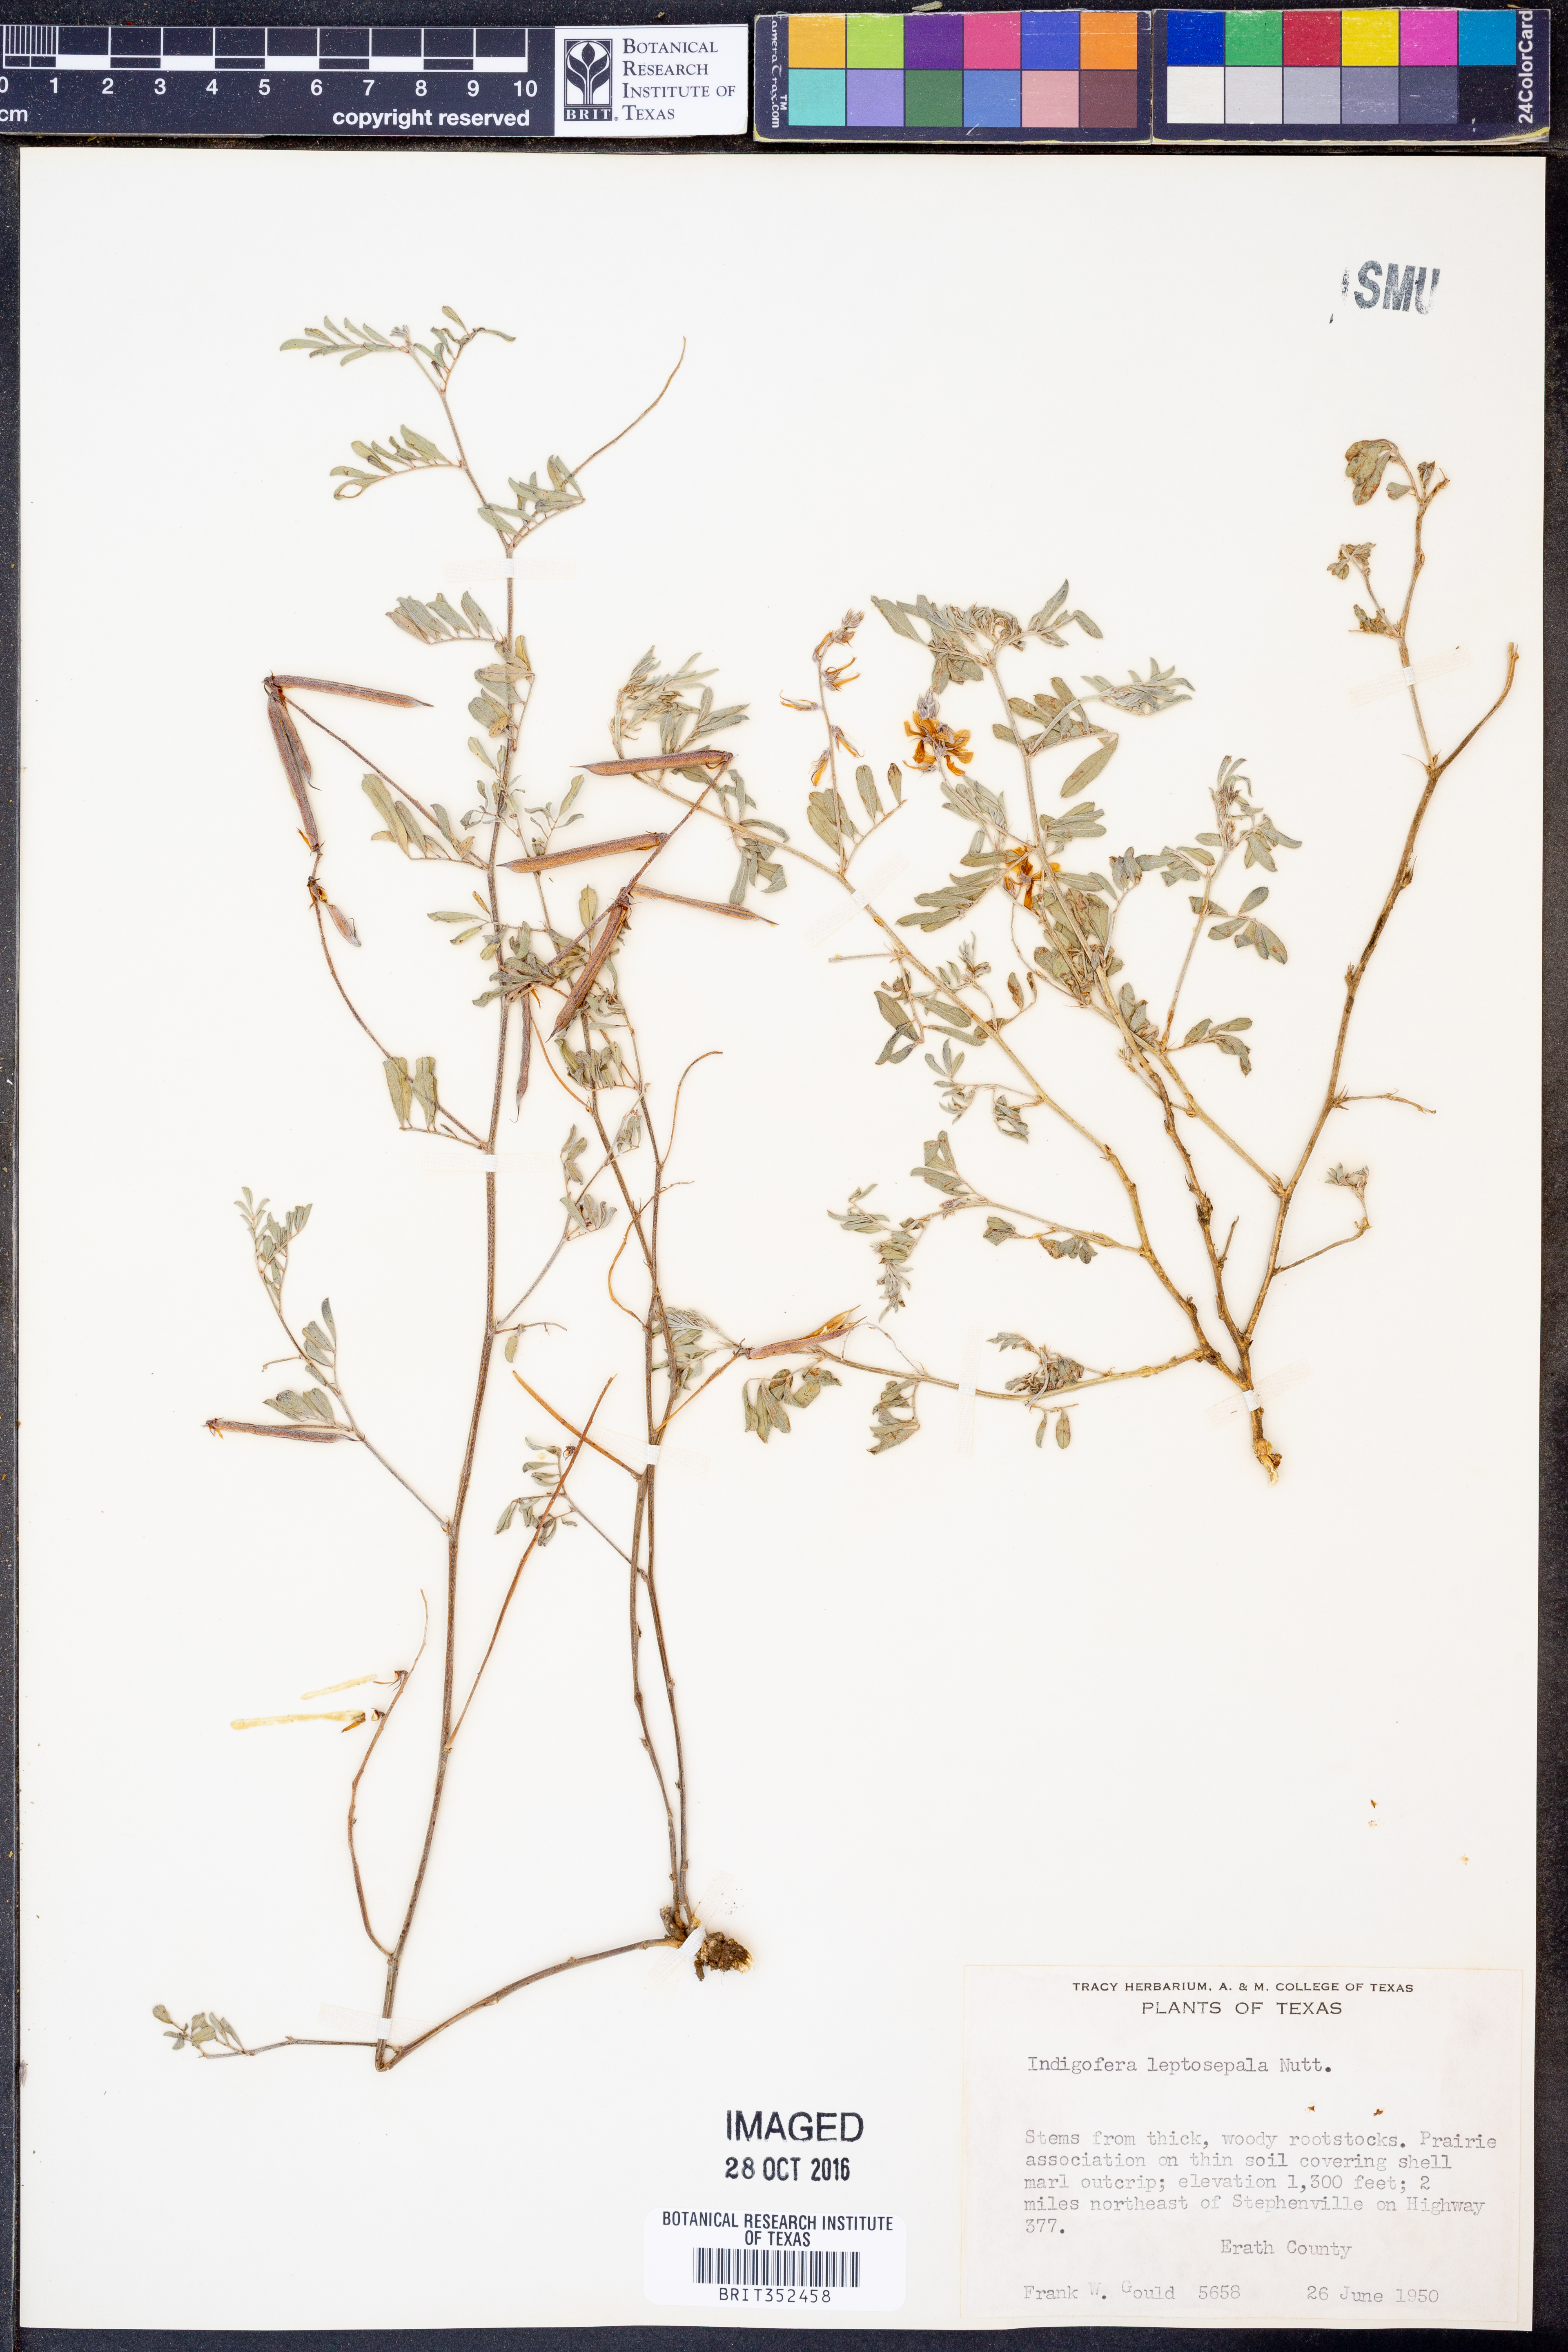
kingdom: Plantae
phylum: Tracheophyta
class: Magnoliopsida
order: Fabales
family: Fabaceae
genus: Indigofera
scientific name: Indigofera argutidens
